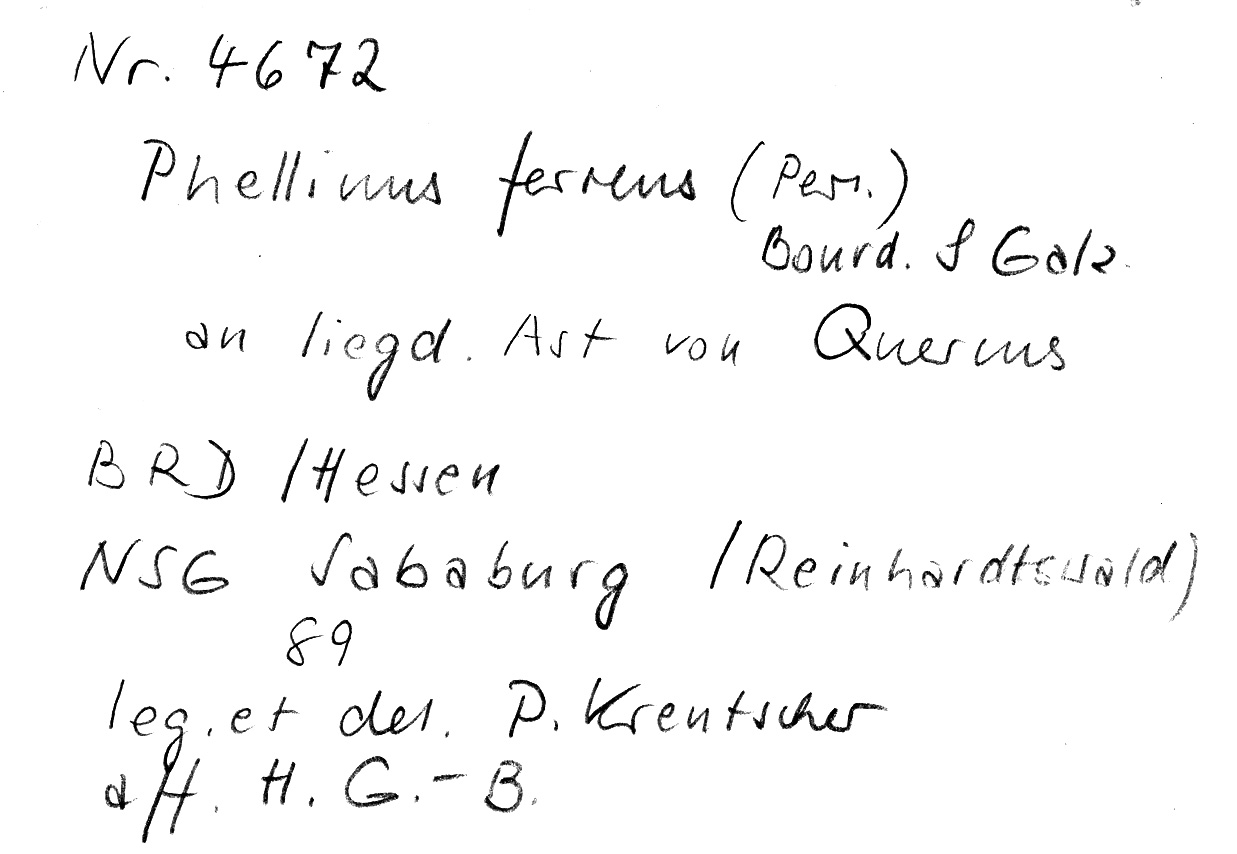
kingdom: Fungi
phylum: Basidiomycota
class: Agaricomycetes
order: Hymenochaetales
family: Hymenochaetaceae
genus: Fuscoporia
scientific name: Fuscoporia ferrea
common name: Cinnamon porecrust
